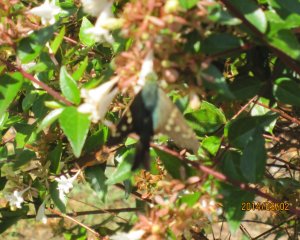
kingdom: Animalia
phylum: Arthropoda
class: Insecta
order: Lepidoptera
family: Hesperiidae
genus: Urbanus
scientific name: Urbanus proteus
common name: Long-tailed Skipper
